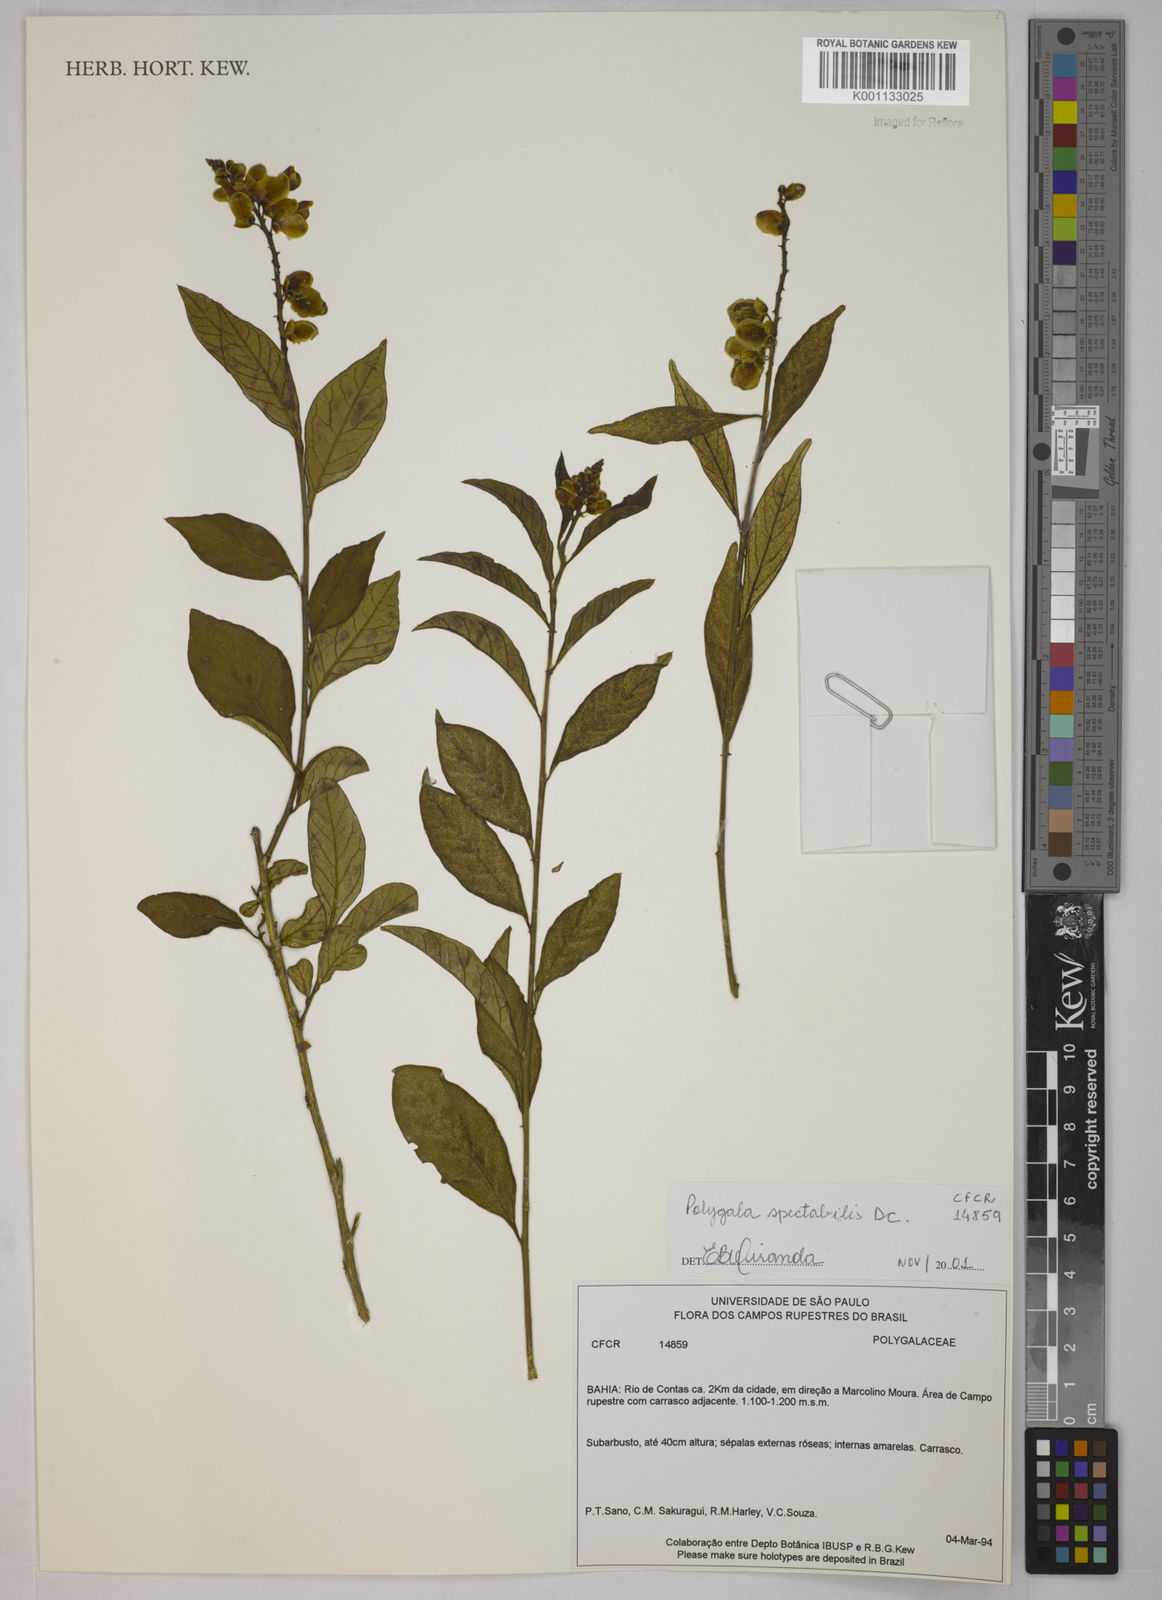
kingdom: Plantae
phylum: Tracheophyta
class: Magnoliopsida
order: Fabales
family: Polygalaceae
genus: Polygala
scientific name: Polygala
